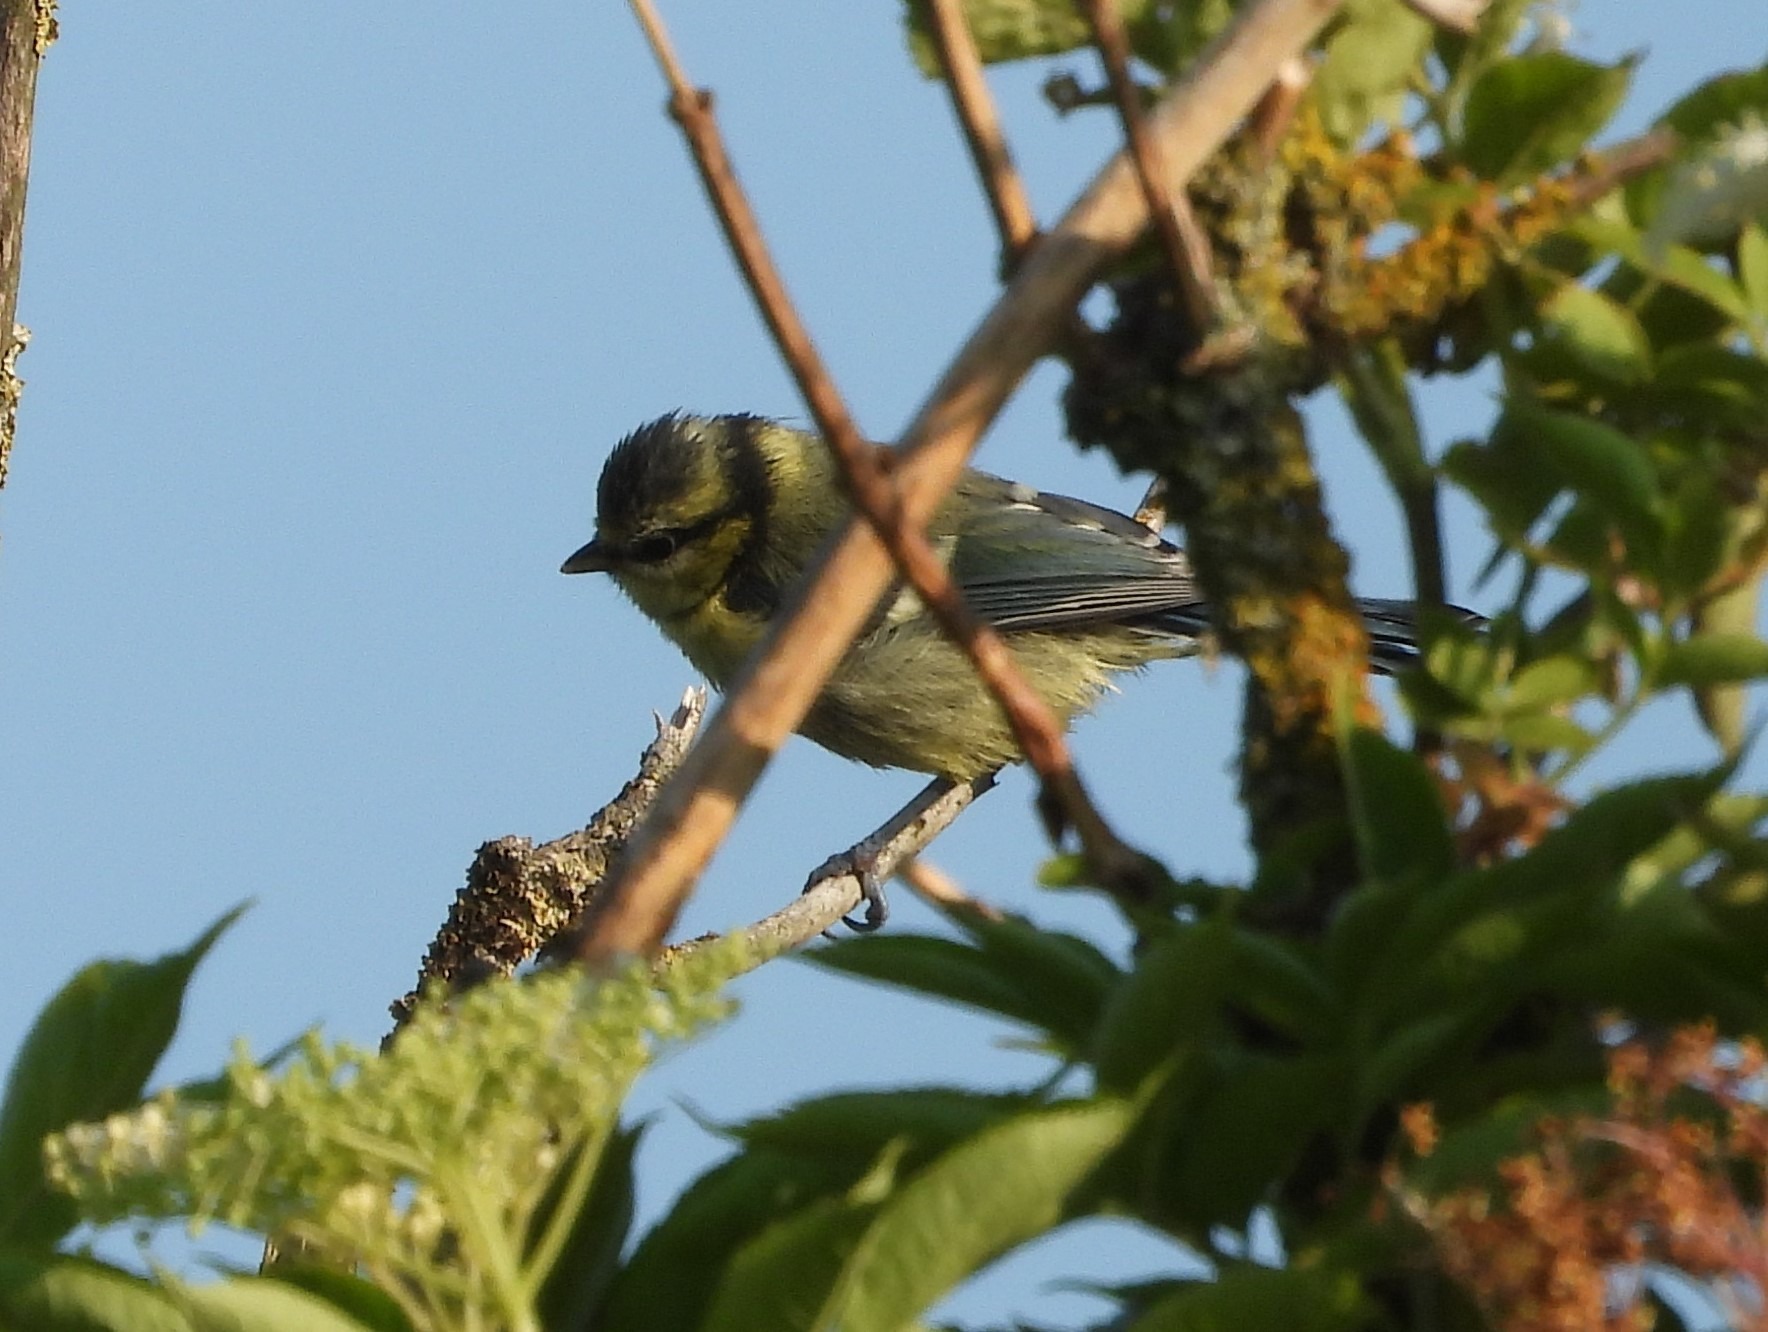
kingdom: Animalia
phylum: Chordata
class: Aves
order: Passeriformes
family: Paridae
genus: Cyanistes
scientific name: Cyanistes caeruleus
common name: Blåmejse
